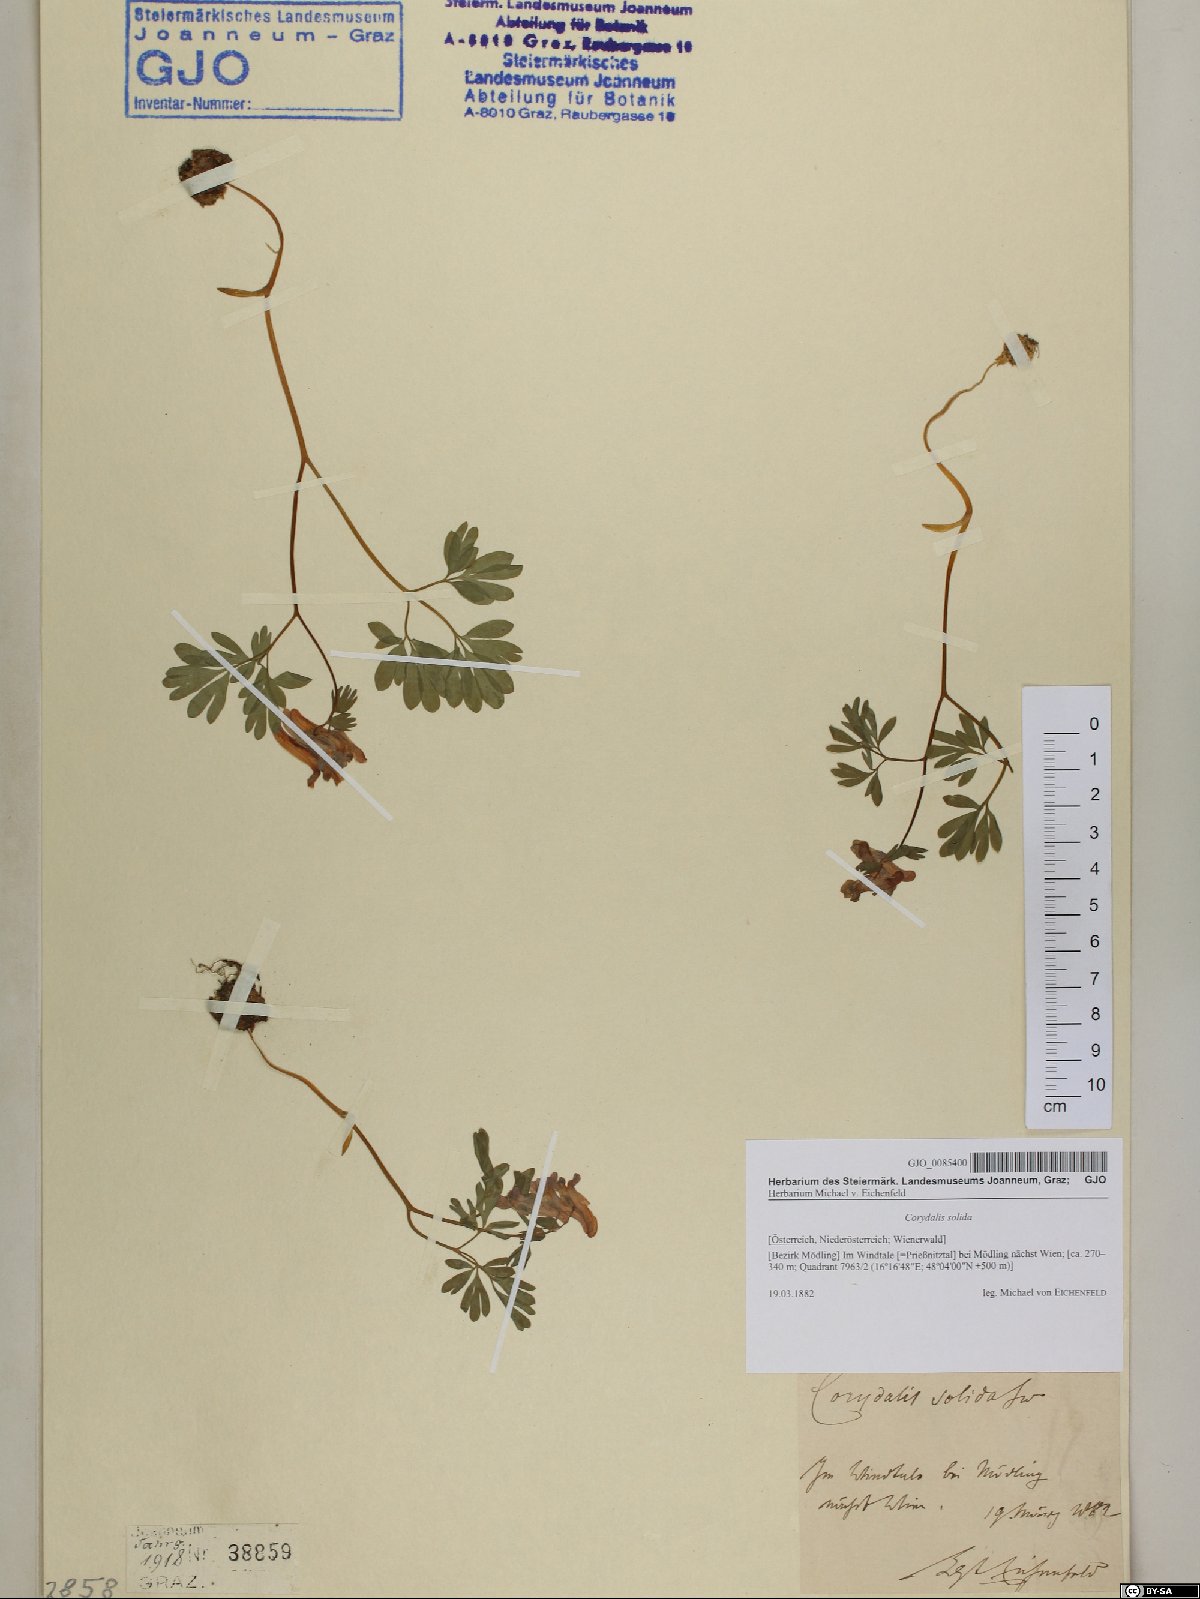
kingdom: Plantae
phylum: Tracheophyta
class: Magnoliopsida
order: Ranunculales
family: Papaveraceae
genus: Corydalis
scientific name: Corydalis solida
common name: Bird-in-a-bush
